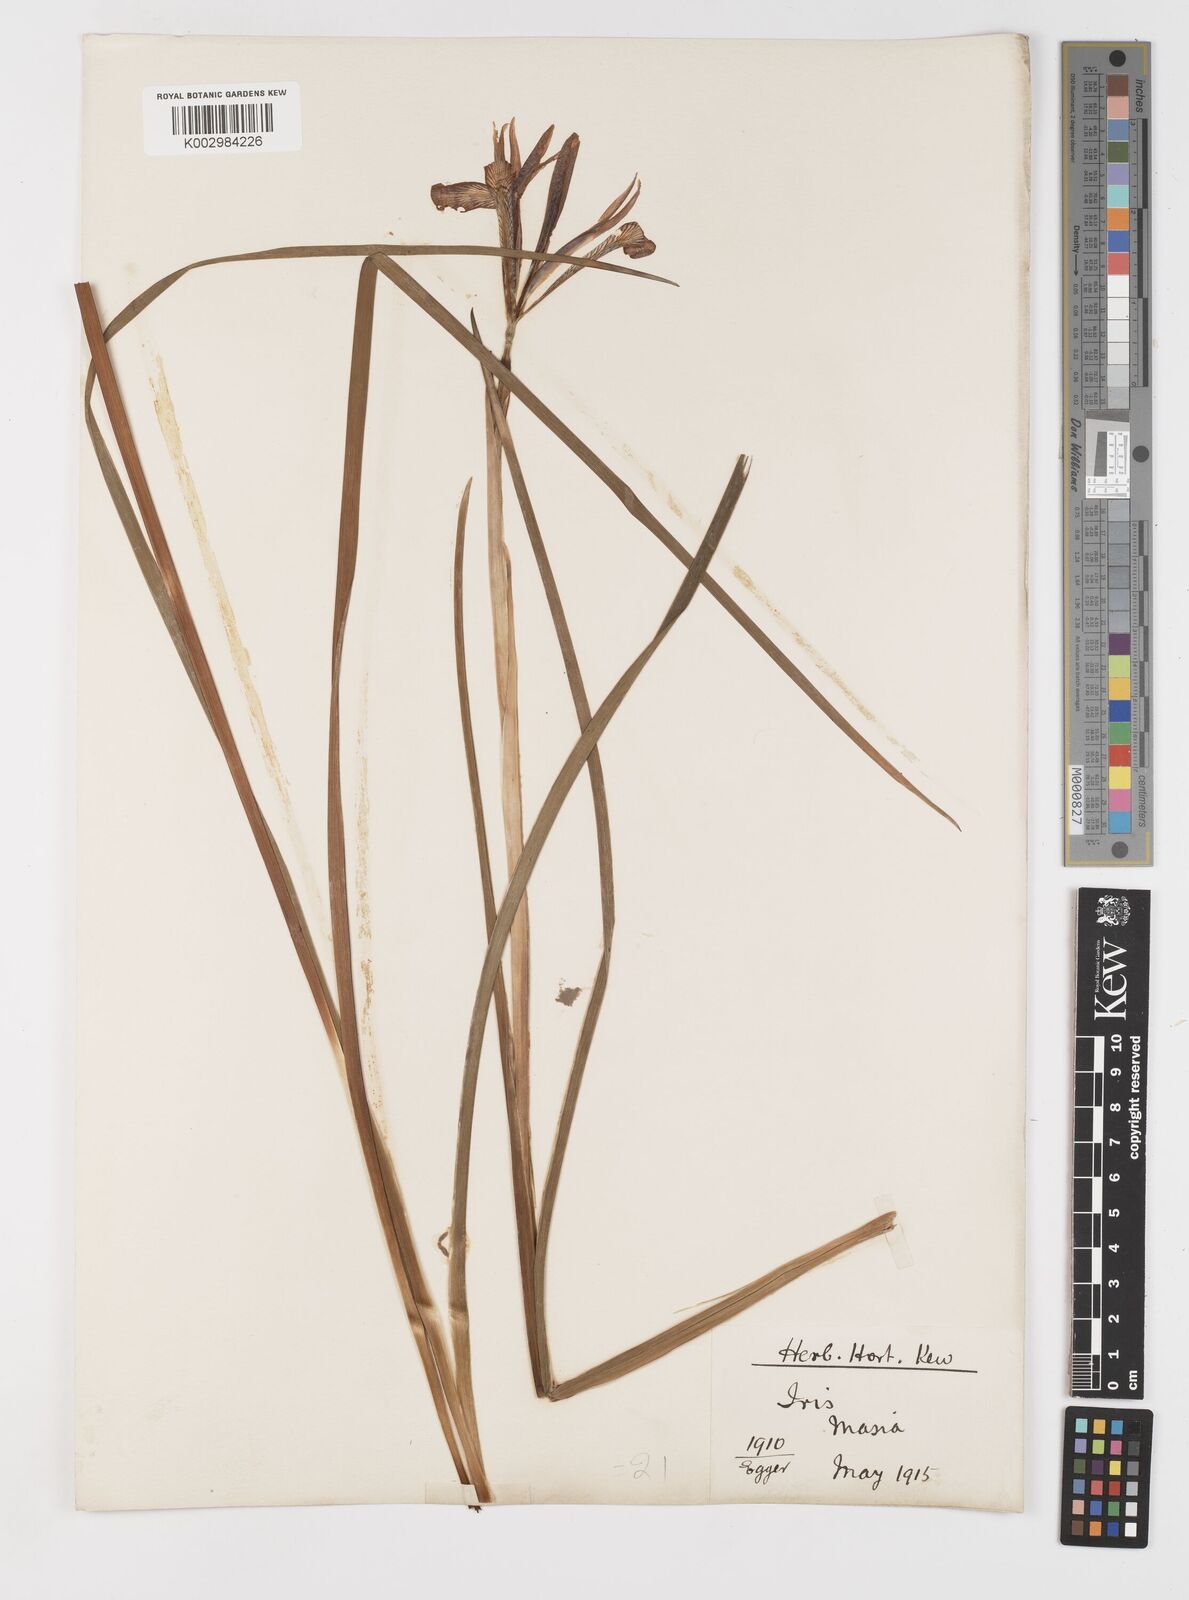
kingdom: Plantae
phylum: Tracheophyta
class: Liliopsida
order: Asparagales
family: Iridaceae
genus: Iris
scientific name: Iris masiae
